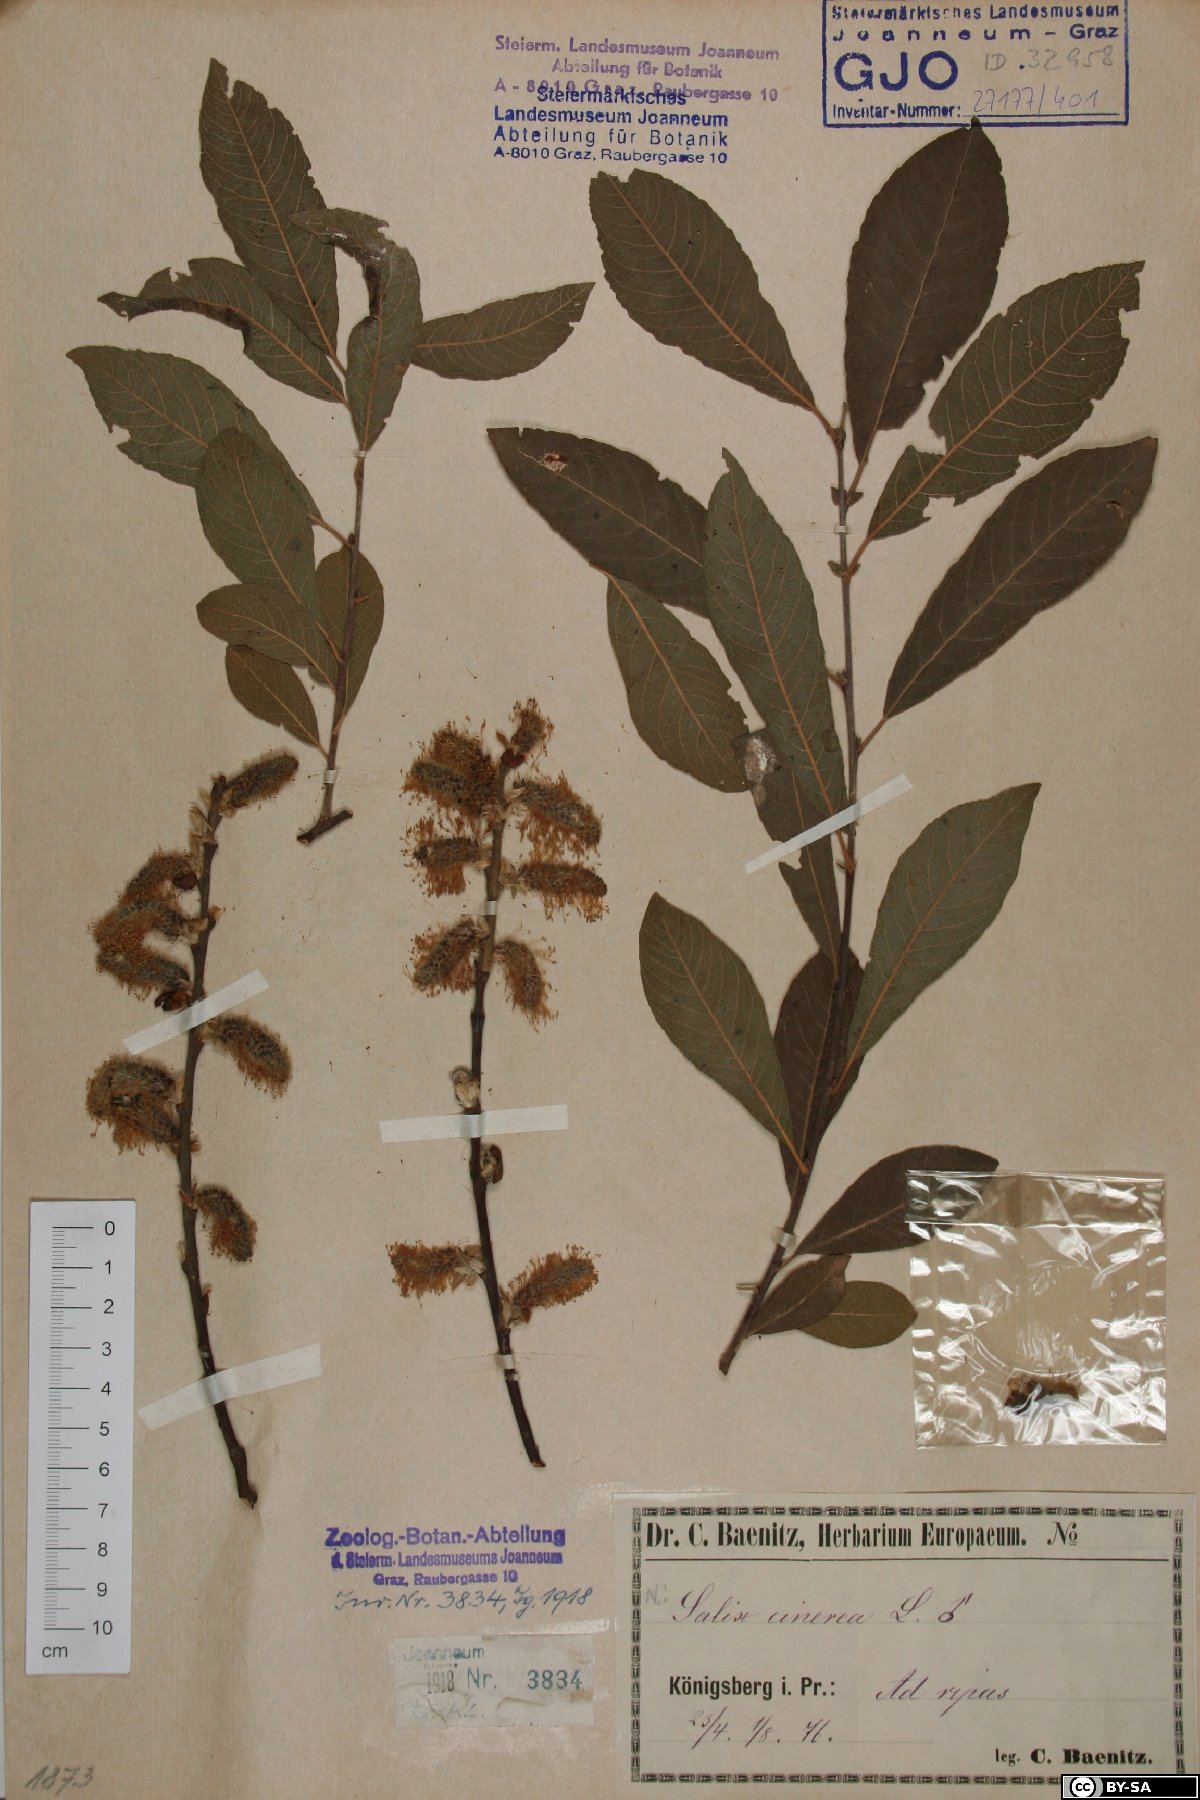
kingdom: Plantae
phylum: Tracheophyta
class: Magnoliopsida
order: Malpighiales
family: Salicaceae
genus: Salix
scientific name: Salix cinerea
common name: Common sallow
